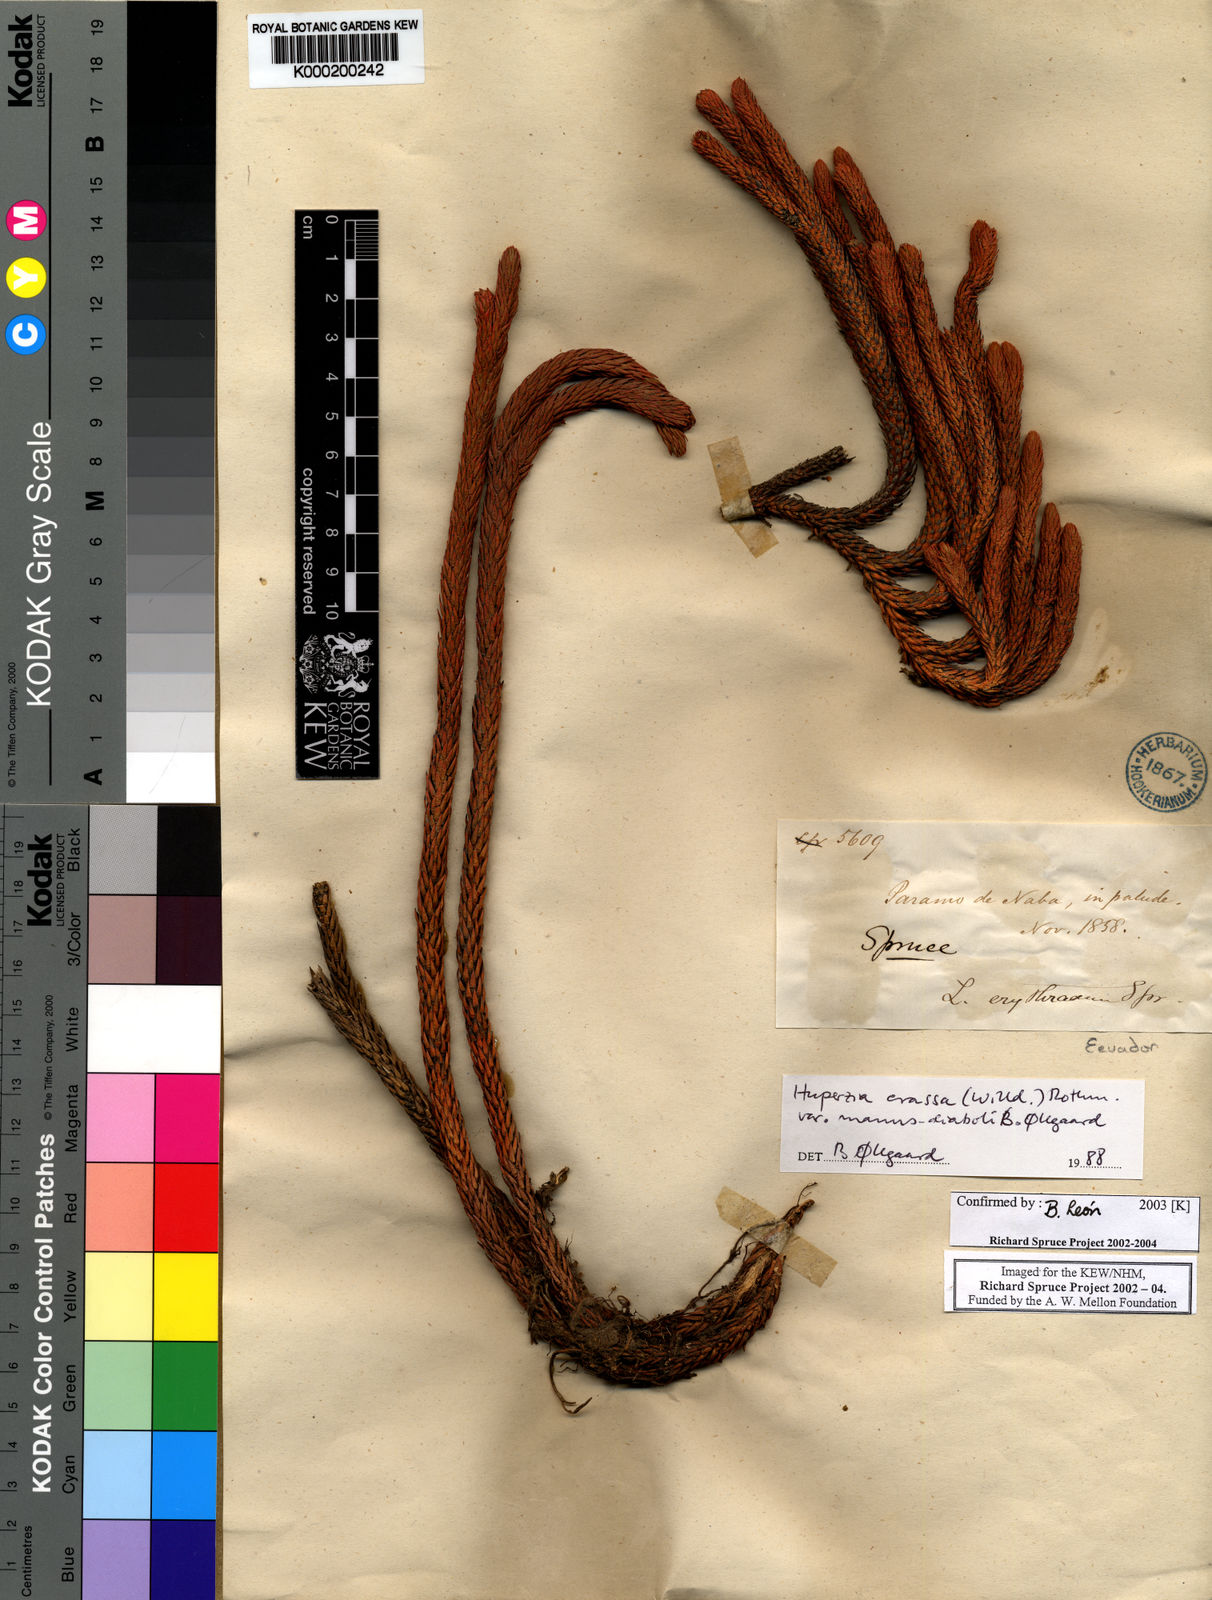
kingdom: Plantae
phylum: Tracheophyta
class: Lycopodiopsida
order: Lycopodiales
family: Lycopodiaceae
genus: Phlegmariurus
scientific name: Phlegmariurus crassus
